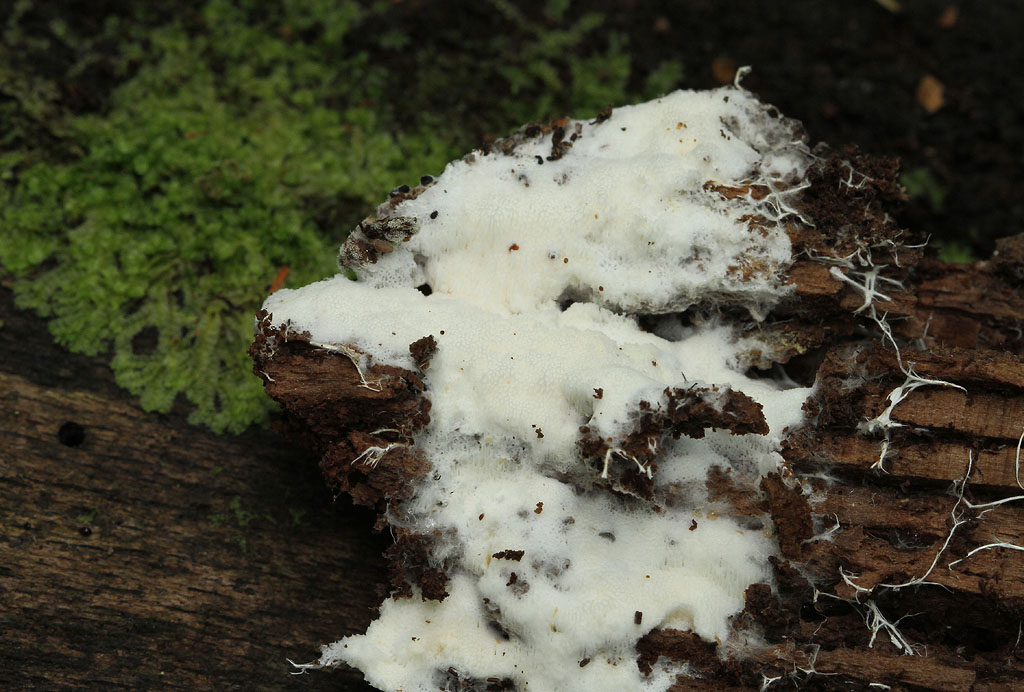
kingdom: Fungi
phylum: Basidiomycota
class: Agaricomycetes
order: Trechisporales
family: Sistotremataceae
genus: Trechispora
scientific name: Trechispora hymenocystis
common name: poret vathinde
